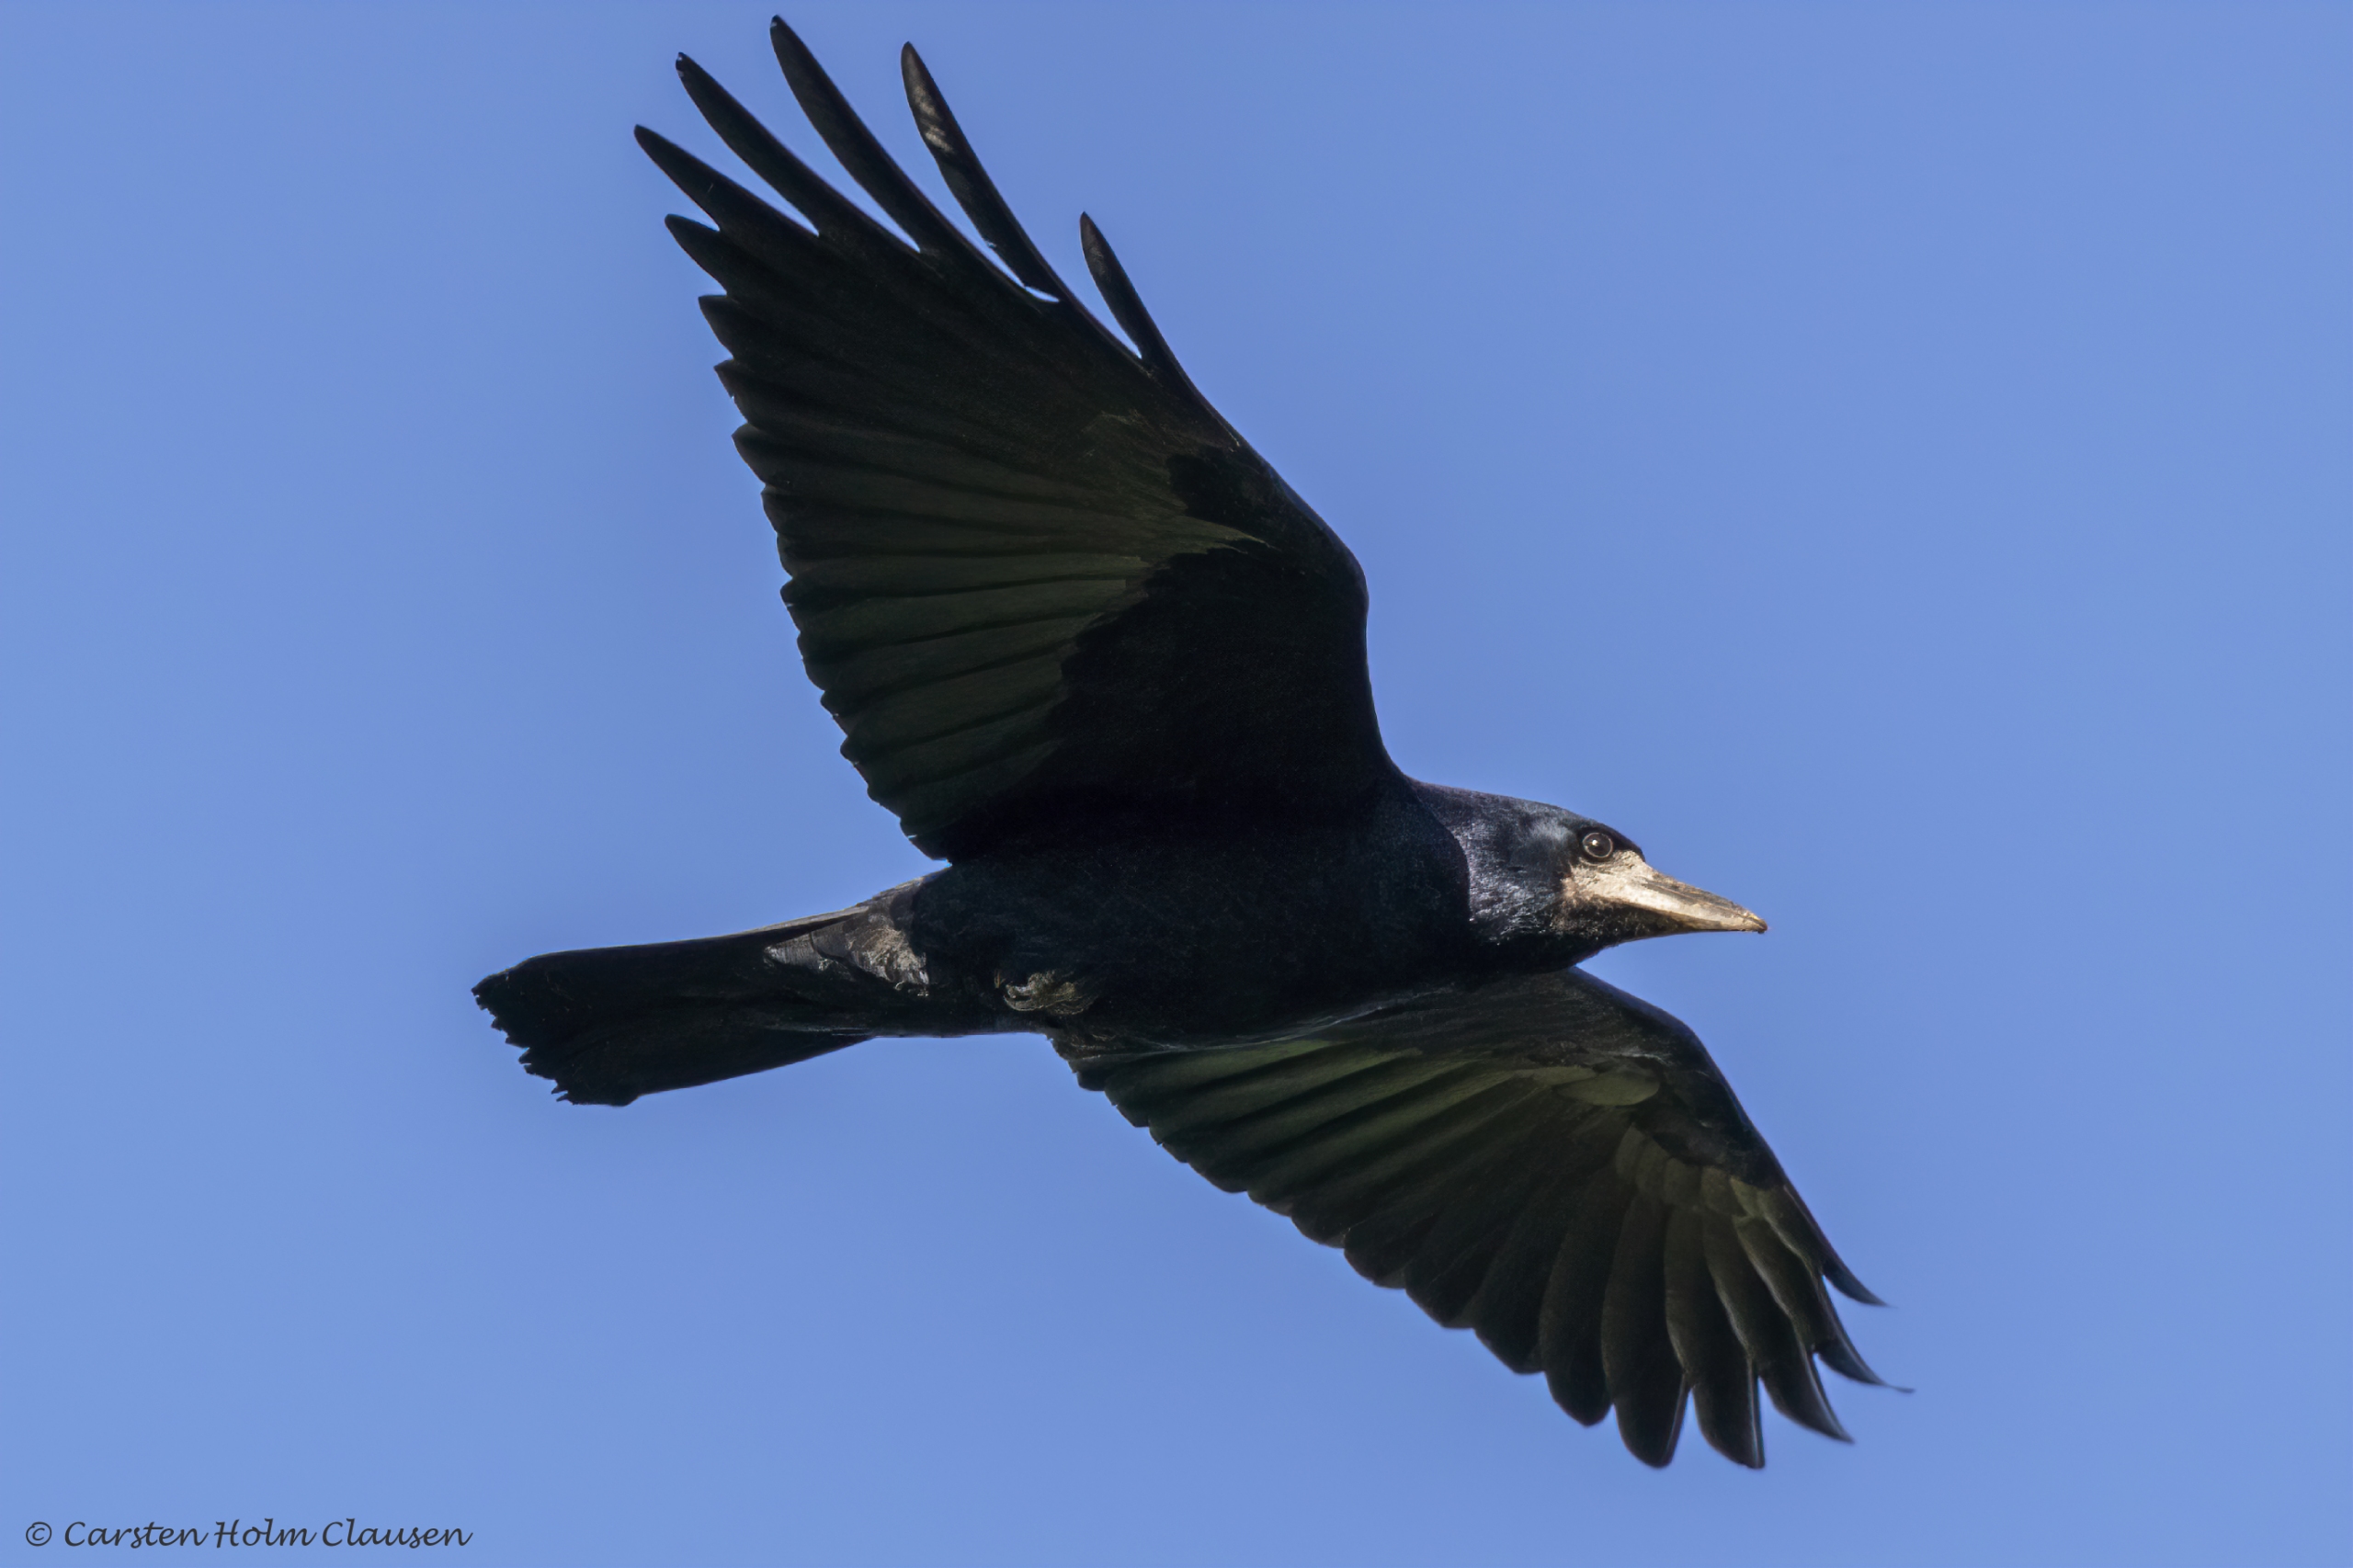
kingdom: Animalia
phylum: Chordata
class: Aves
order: Passeriformes
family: Corvidae
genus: Corvus
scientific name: Corvus frugilegus
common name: Råge
